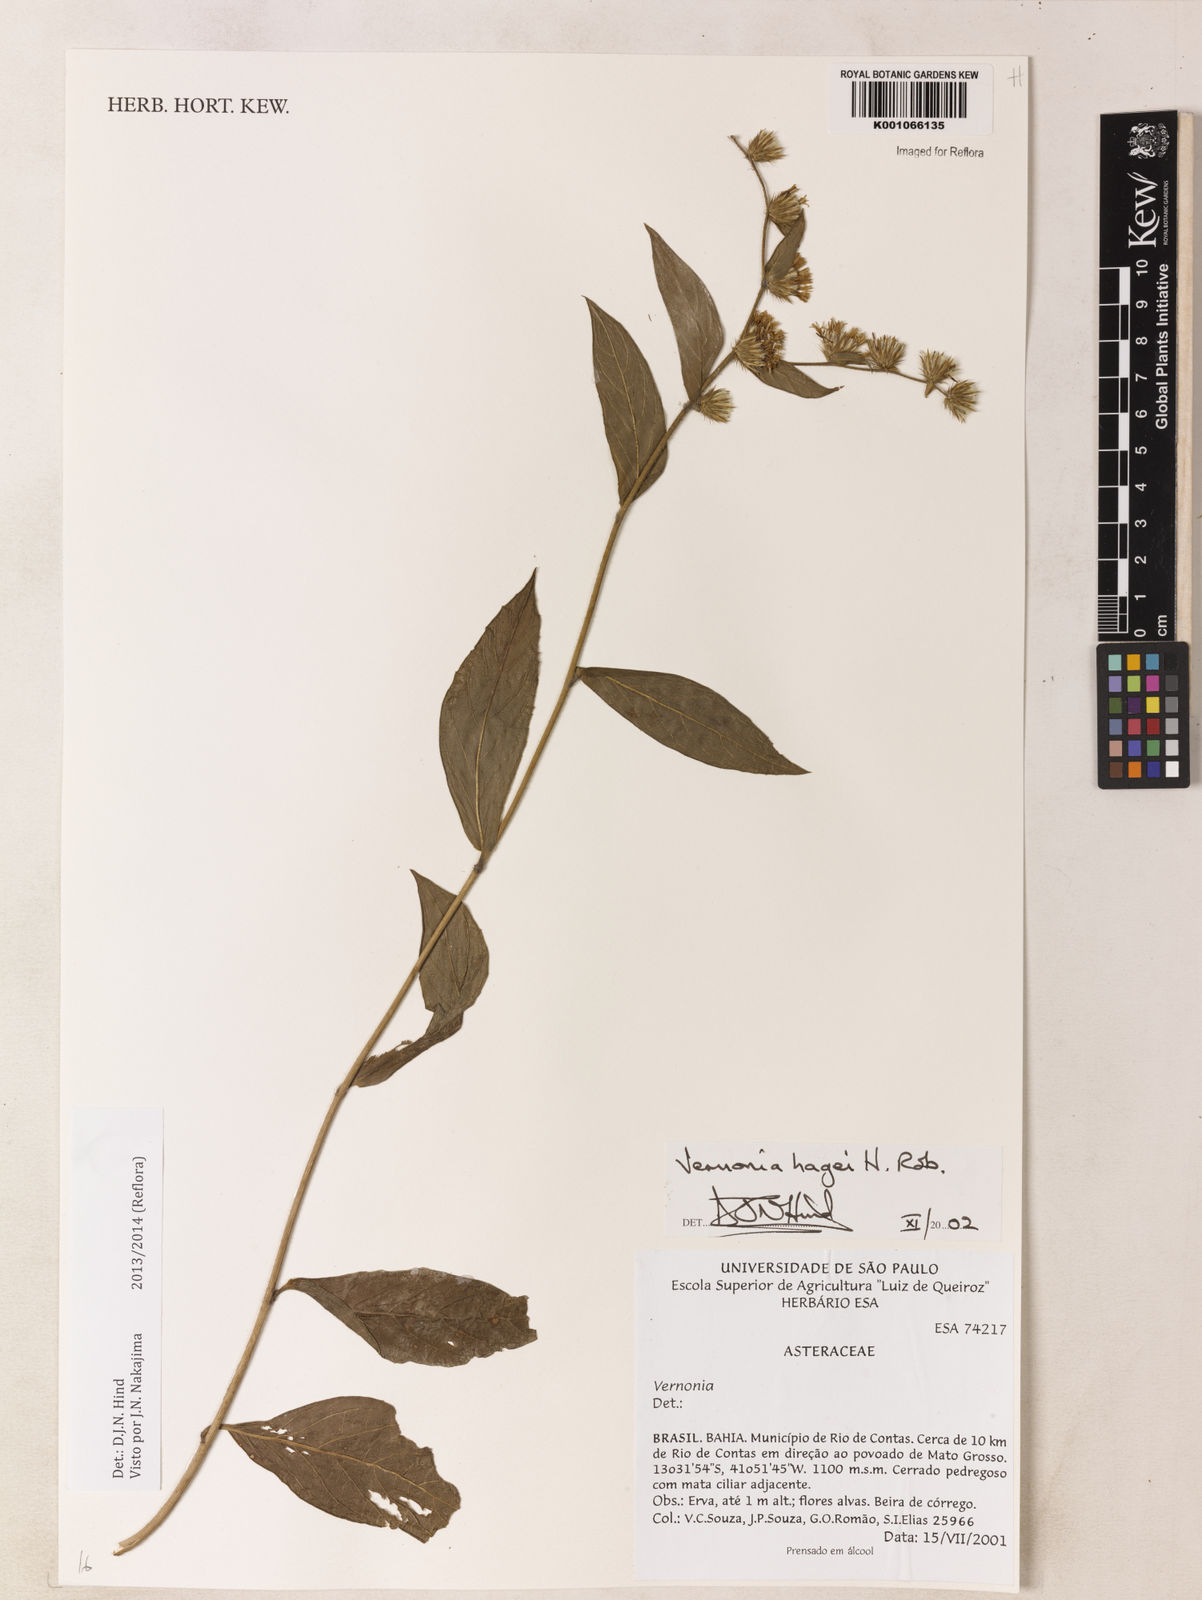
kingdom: Plantae
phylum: Tracheophyta
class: Magnoliopsida
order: Asterales
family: Asteraceae
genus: Lepidaploa
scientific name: Lepidaploa hagei
